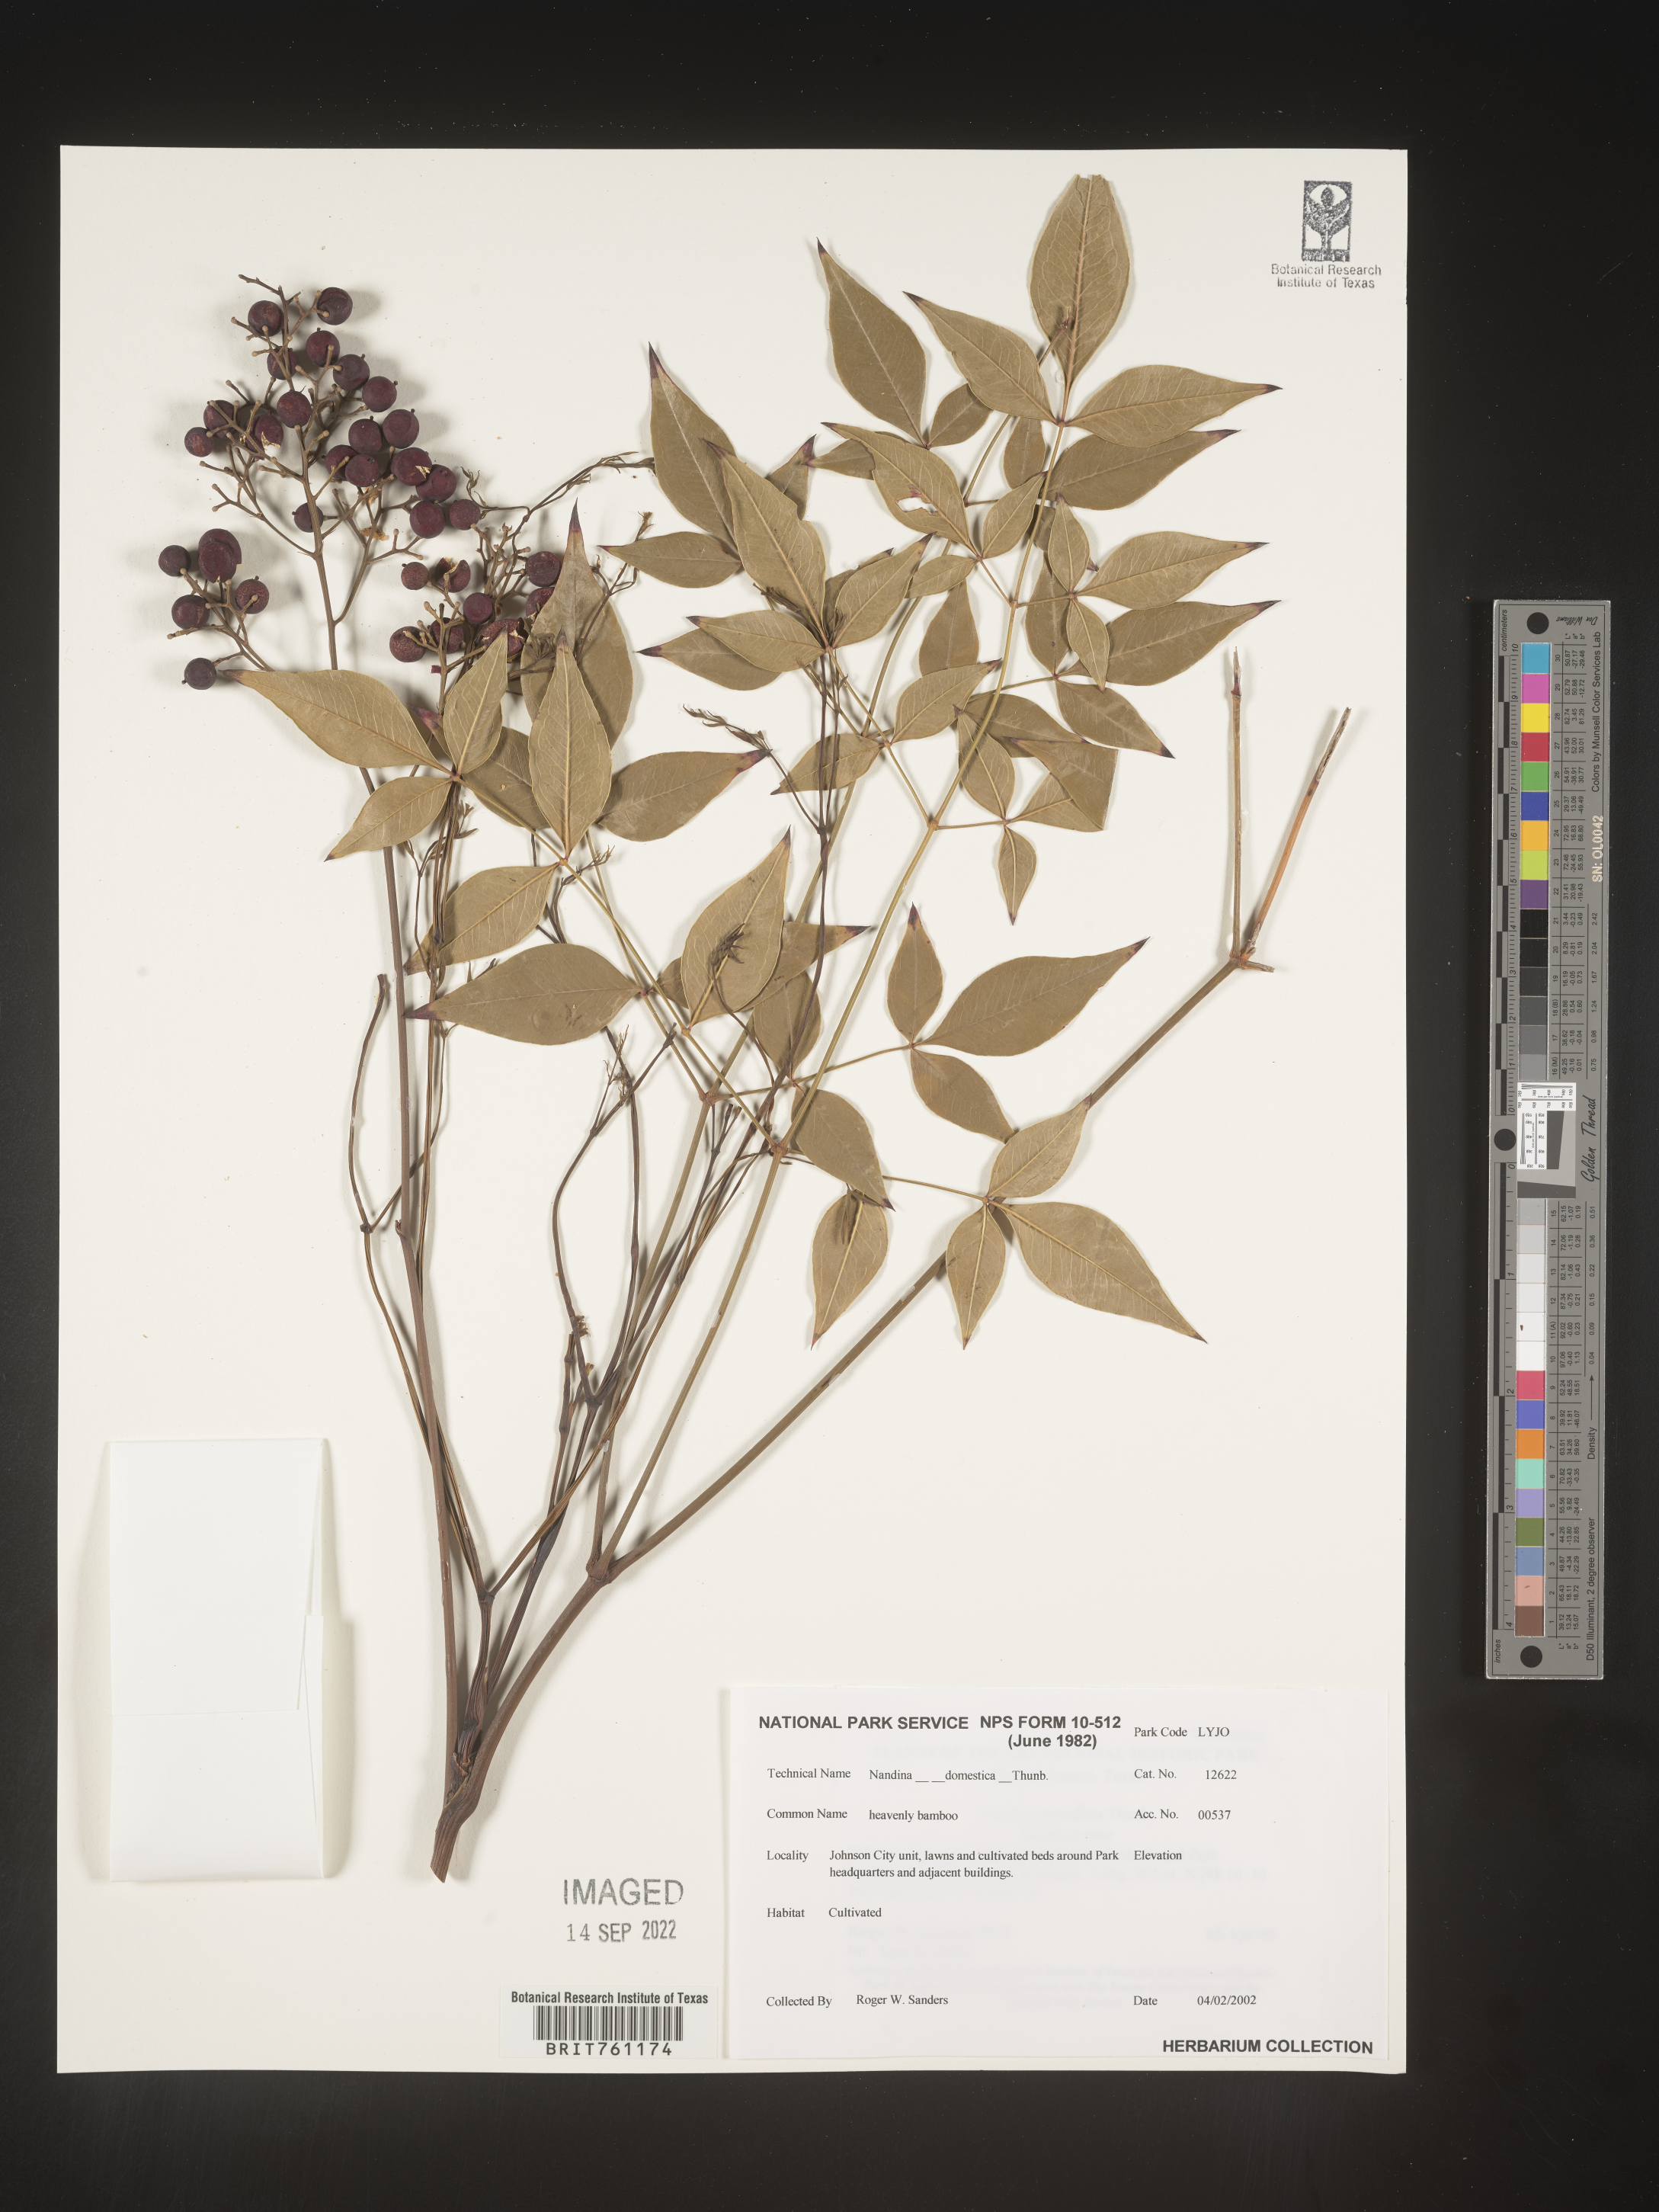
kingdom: Plantae
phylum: Tracheophyta
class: Magnoliopsida
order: Ranunculales
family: Berberidaceae
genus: Nandina
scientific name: Nandina
